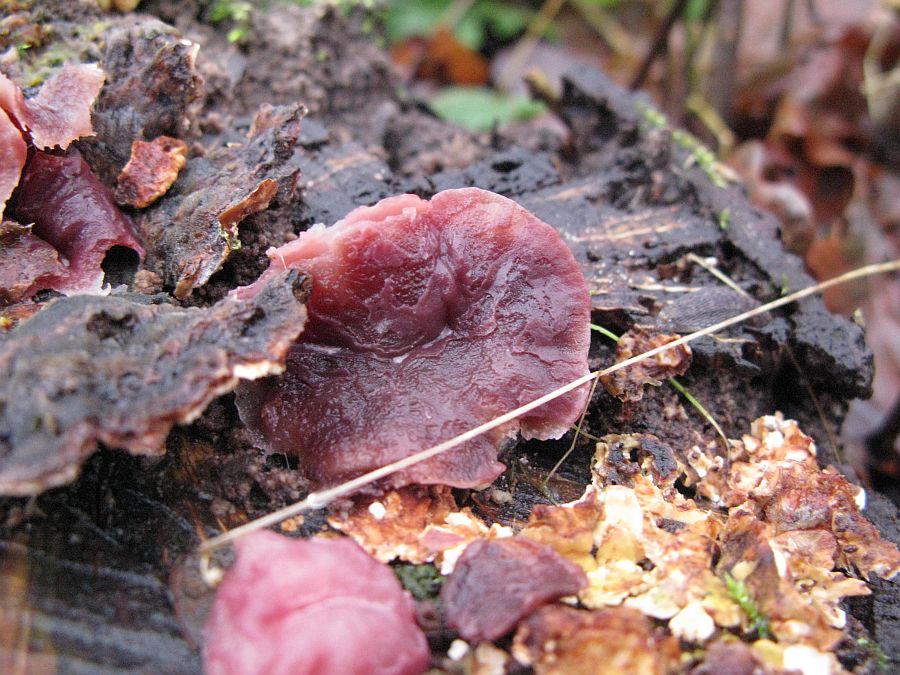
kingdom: Fungi
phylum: Ascomycota
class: Leotiomycetes
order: Helotiales
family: Gelatinodiscaceae
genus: Ascocoryne
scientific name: Ascocoryne cylichnium
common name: stor sejskive
